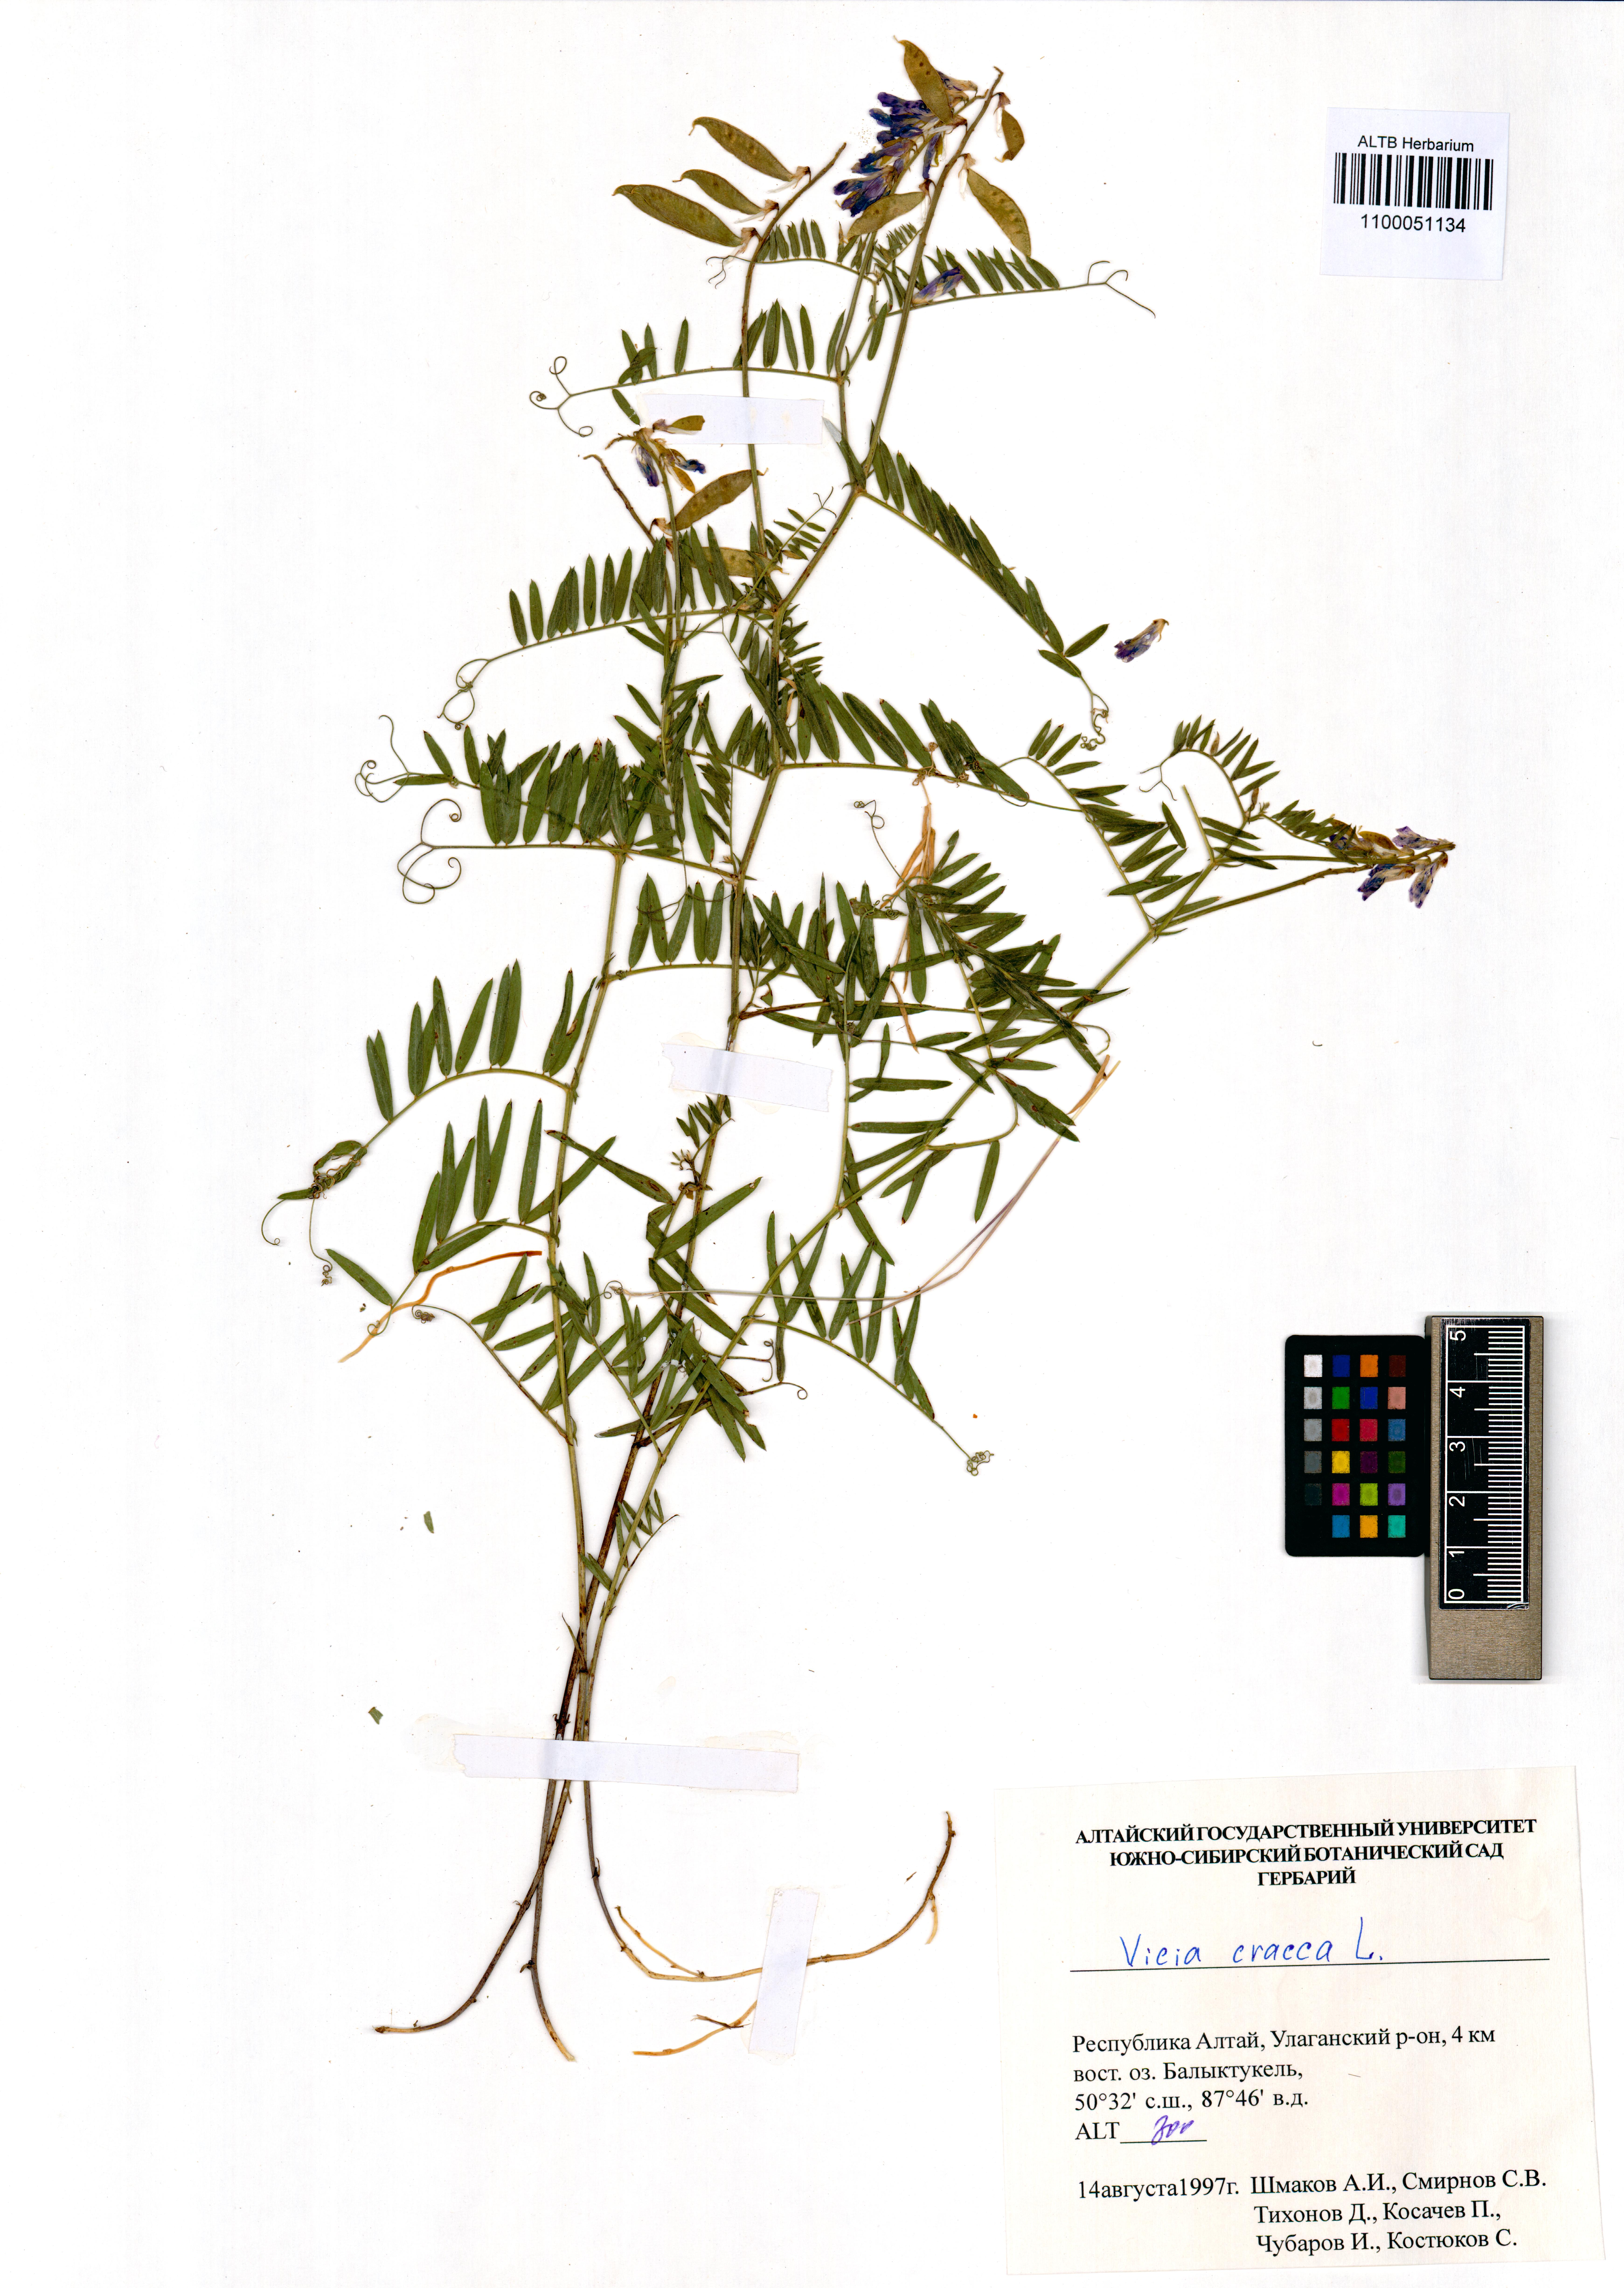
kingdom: Plantae
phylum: Tracheophyta
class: Magnoliopsida
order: Fabales
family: Fabaceae
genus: Vicia
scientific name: Vicia cracca
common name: Bird vetch
